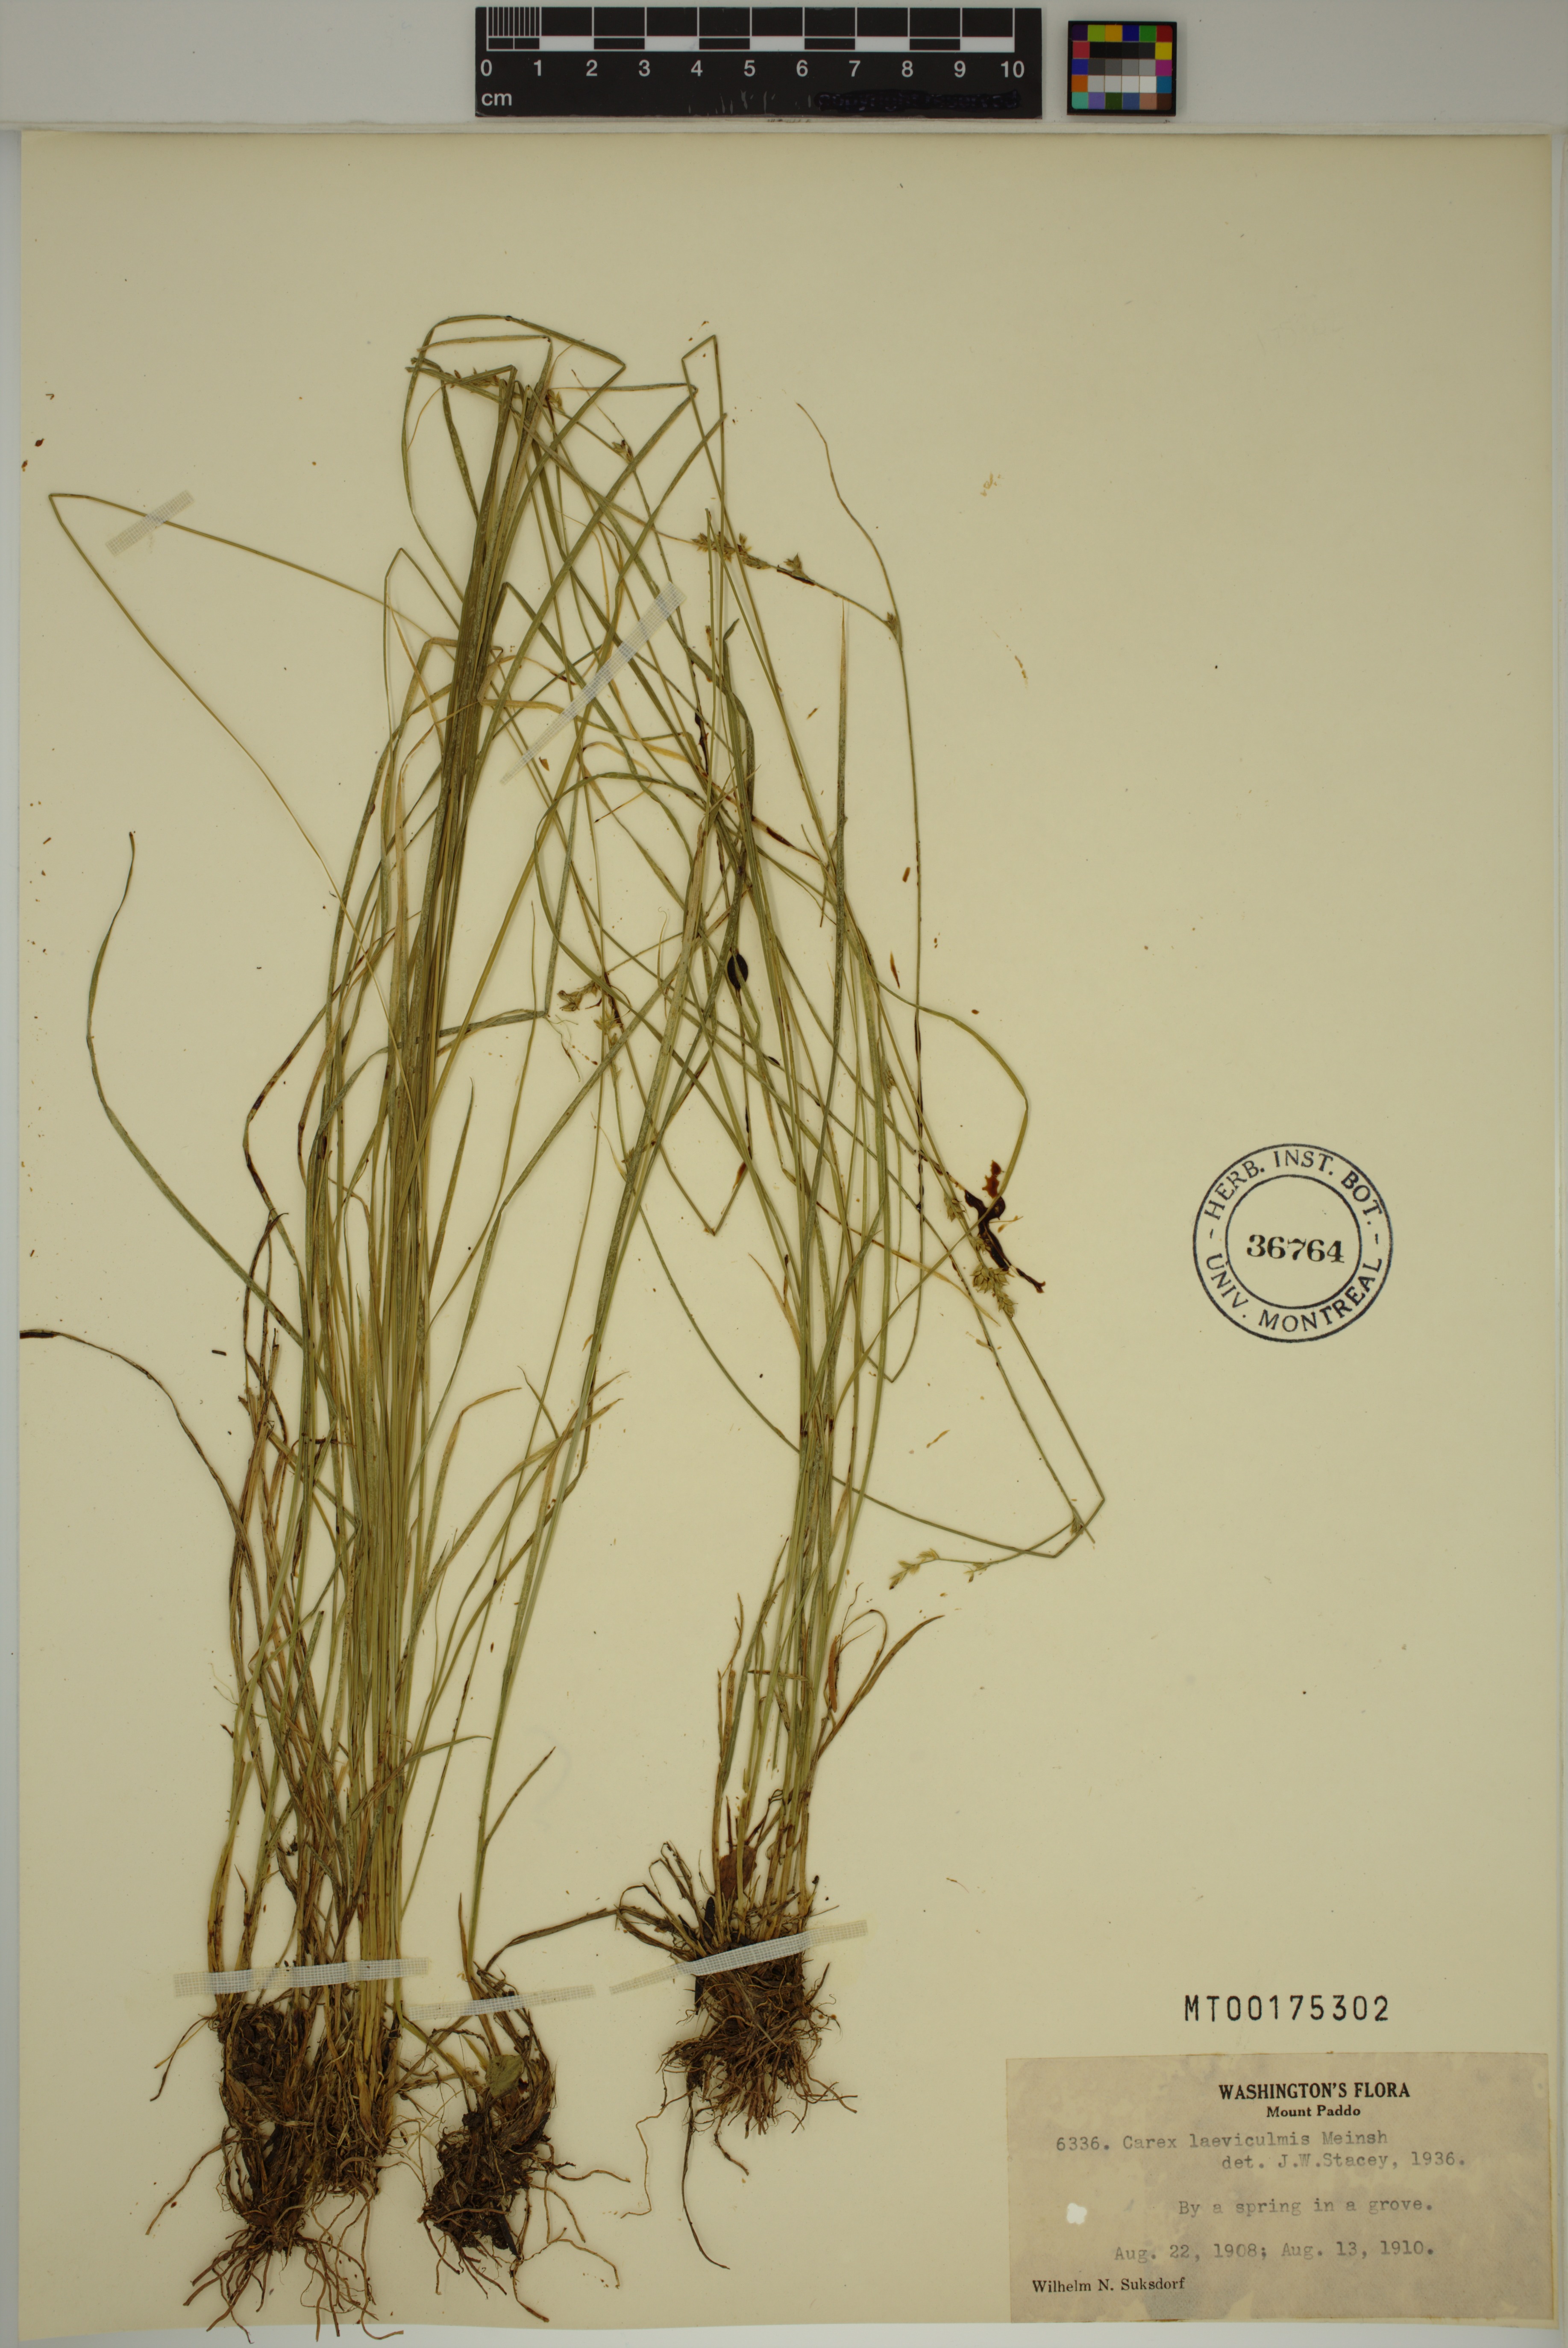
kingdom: Plantae
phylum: Tracheophyta
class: Liliopsida
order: Poales
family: Cyperaceae
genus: Carex
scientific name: Carex laeviculmis
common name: Smooth sedge
